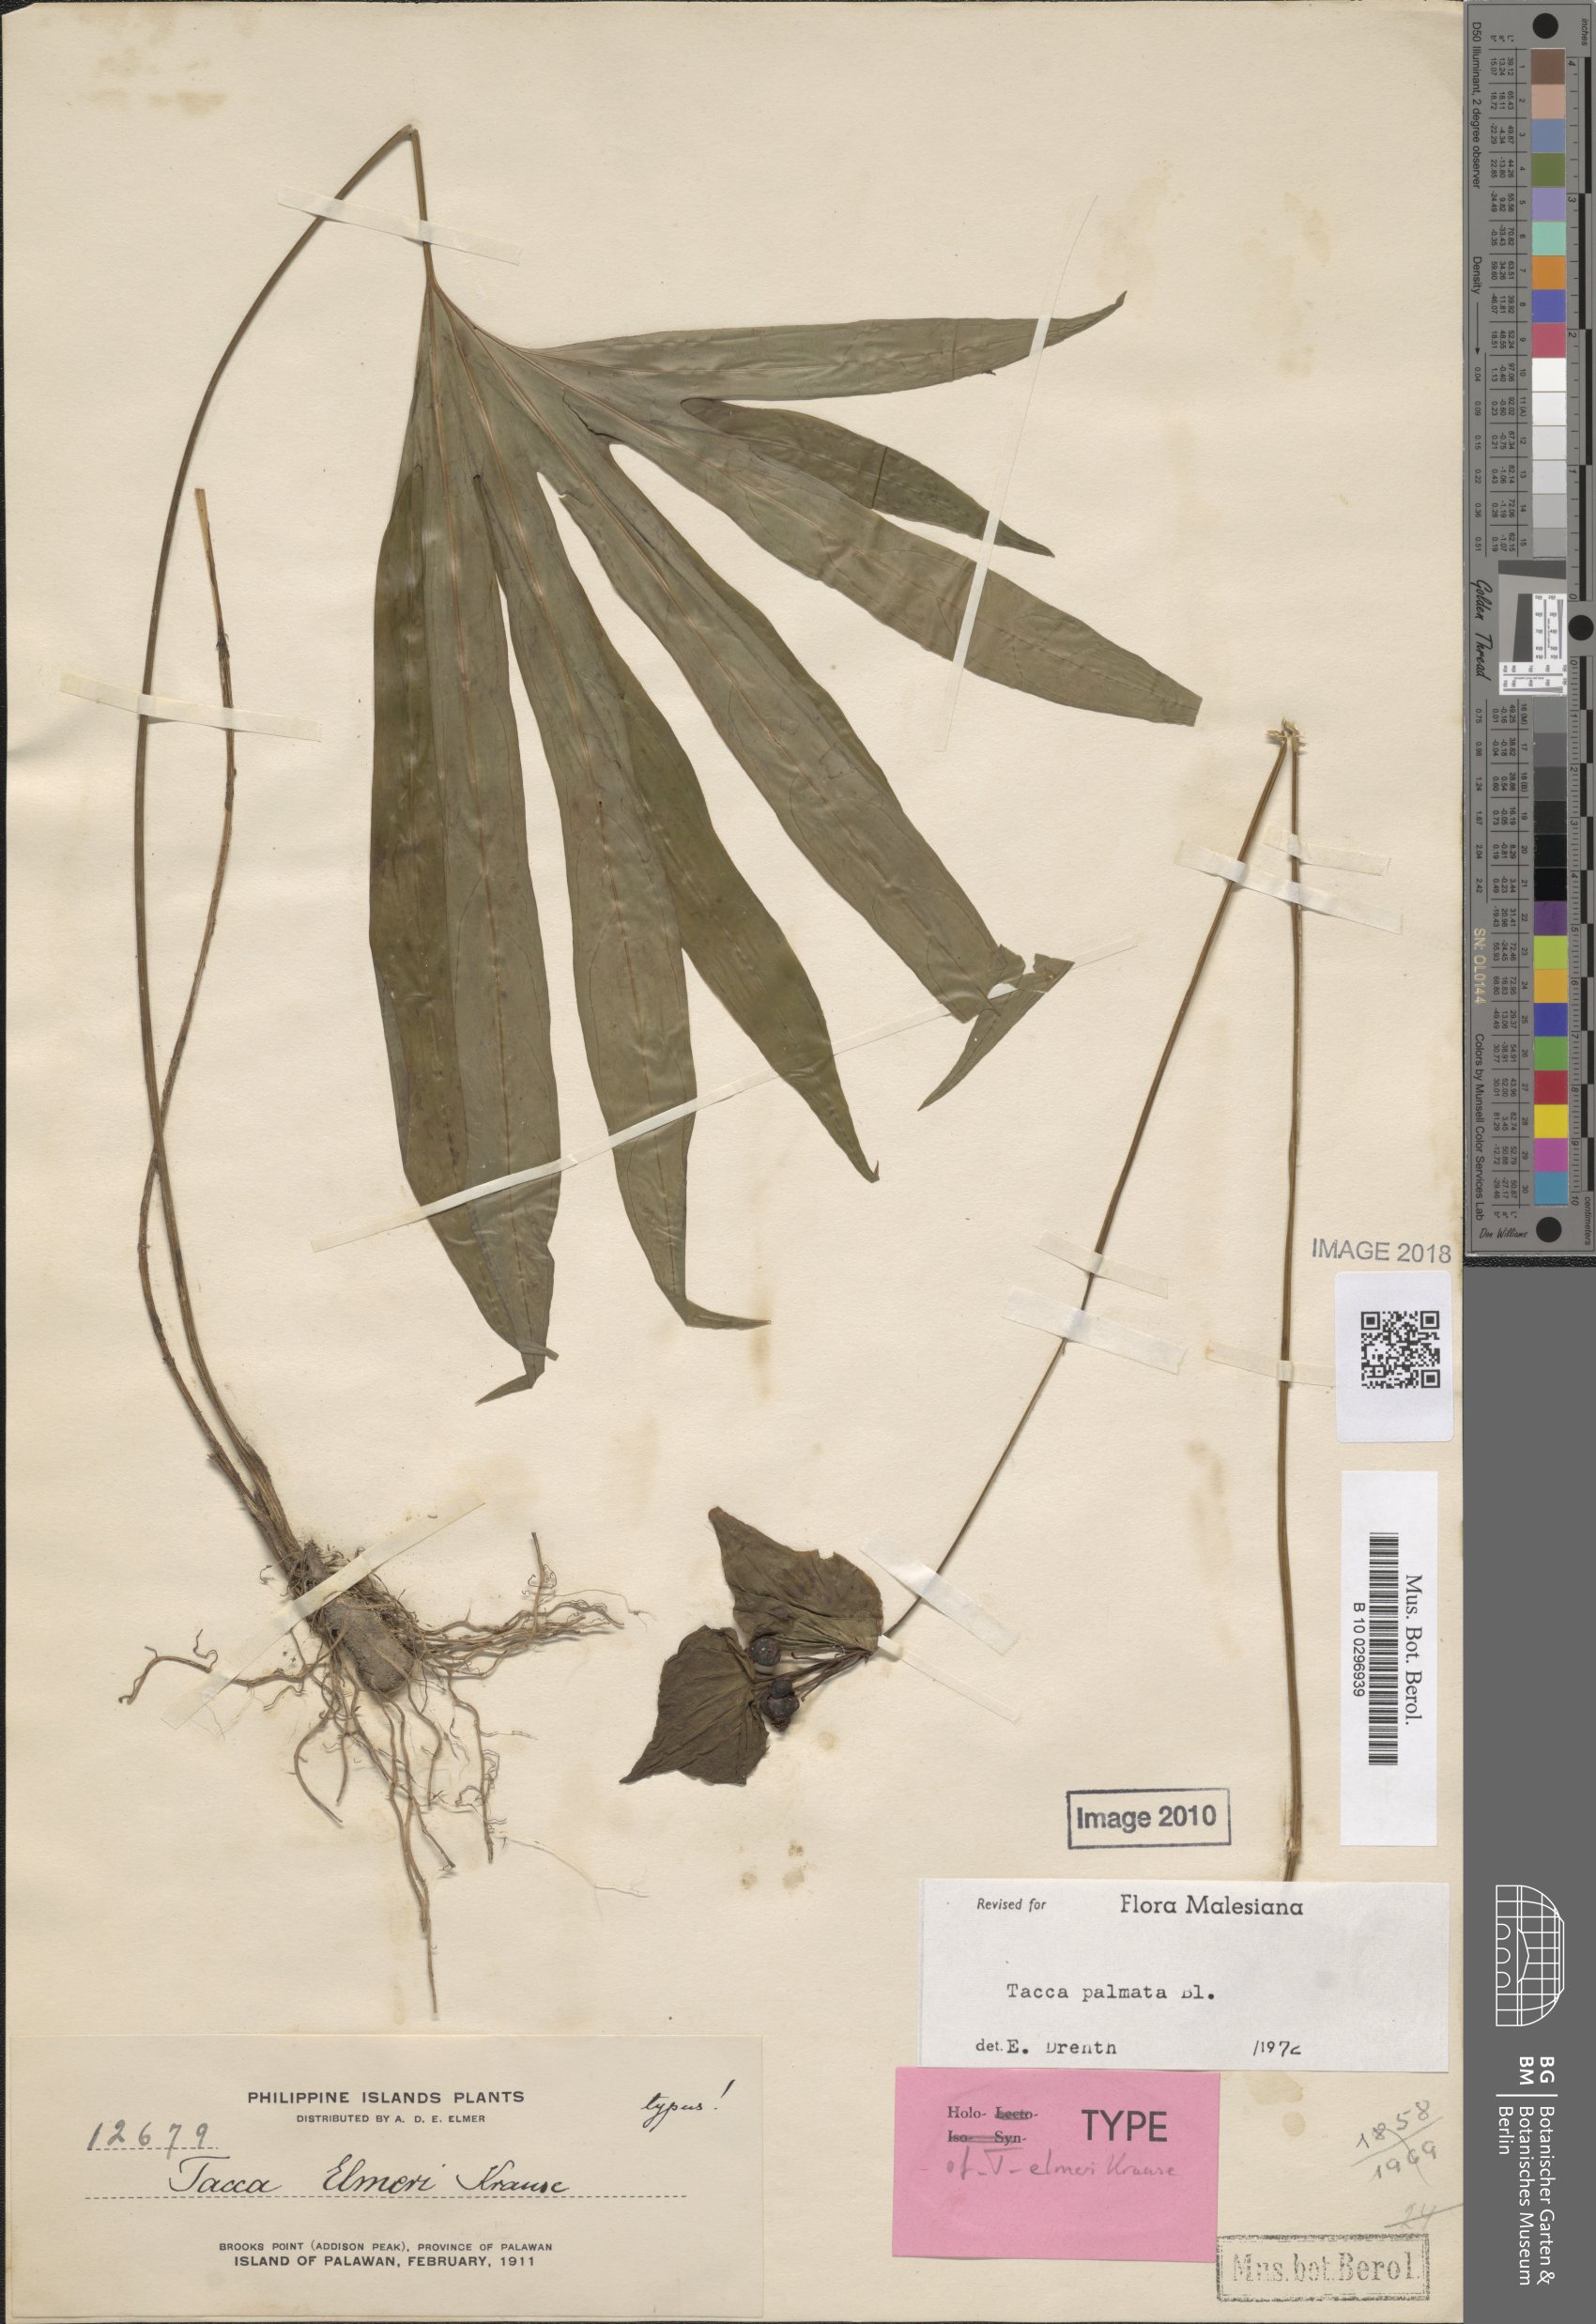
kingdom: Plantae
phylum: Tracheophyta
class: Liliopsida
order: Dioscoreales
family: Dioscoreaceae
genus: Tacca
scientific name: Tacca palmata
